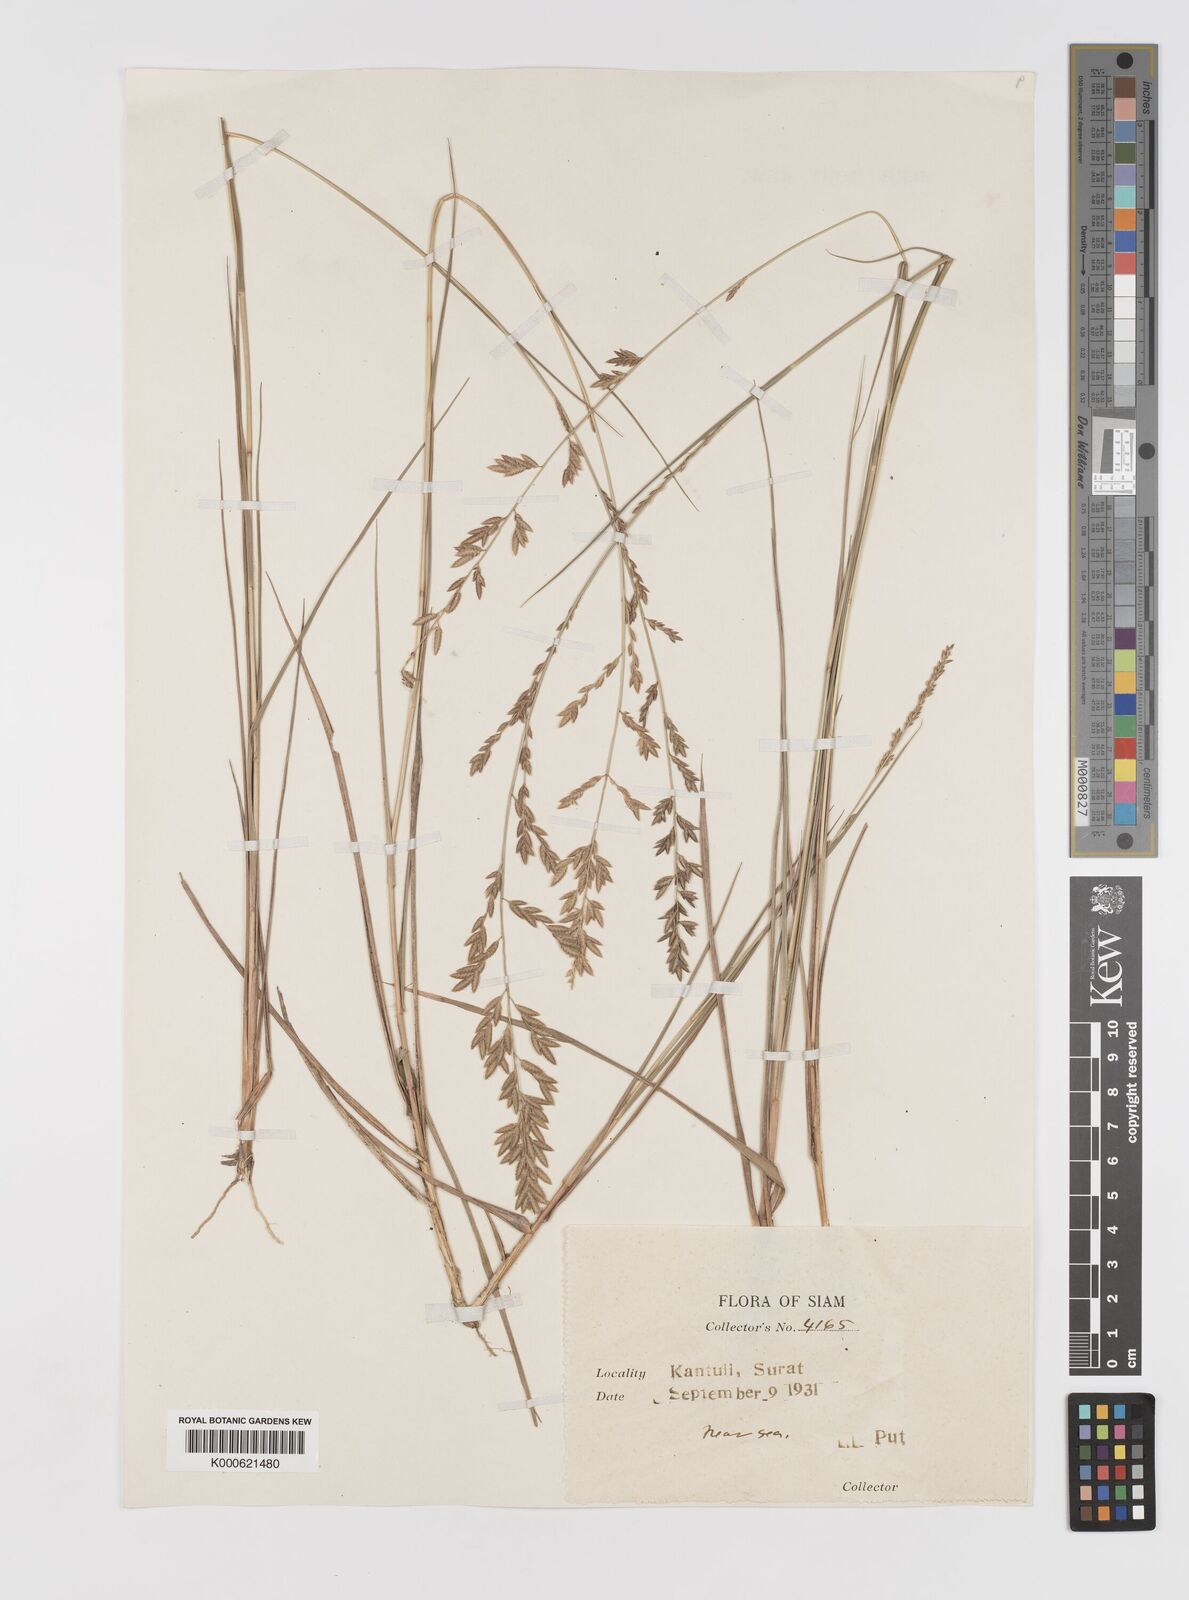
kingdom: Plantae
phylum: Tracheophyta
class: Liliopsida
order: Poales
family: Poaceae
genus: Eragrostis
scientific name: Eragrostis brownii
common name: Lovegrass
